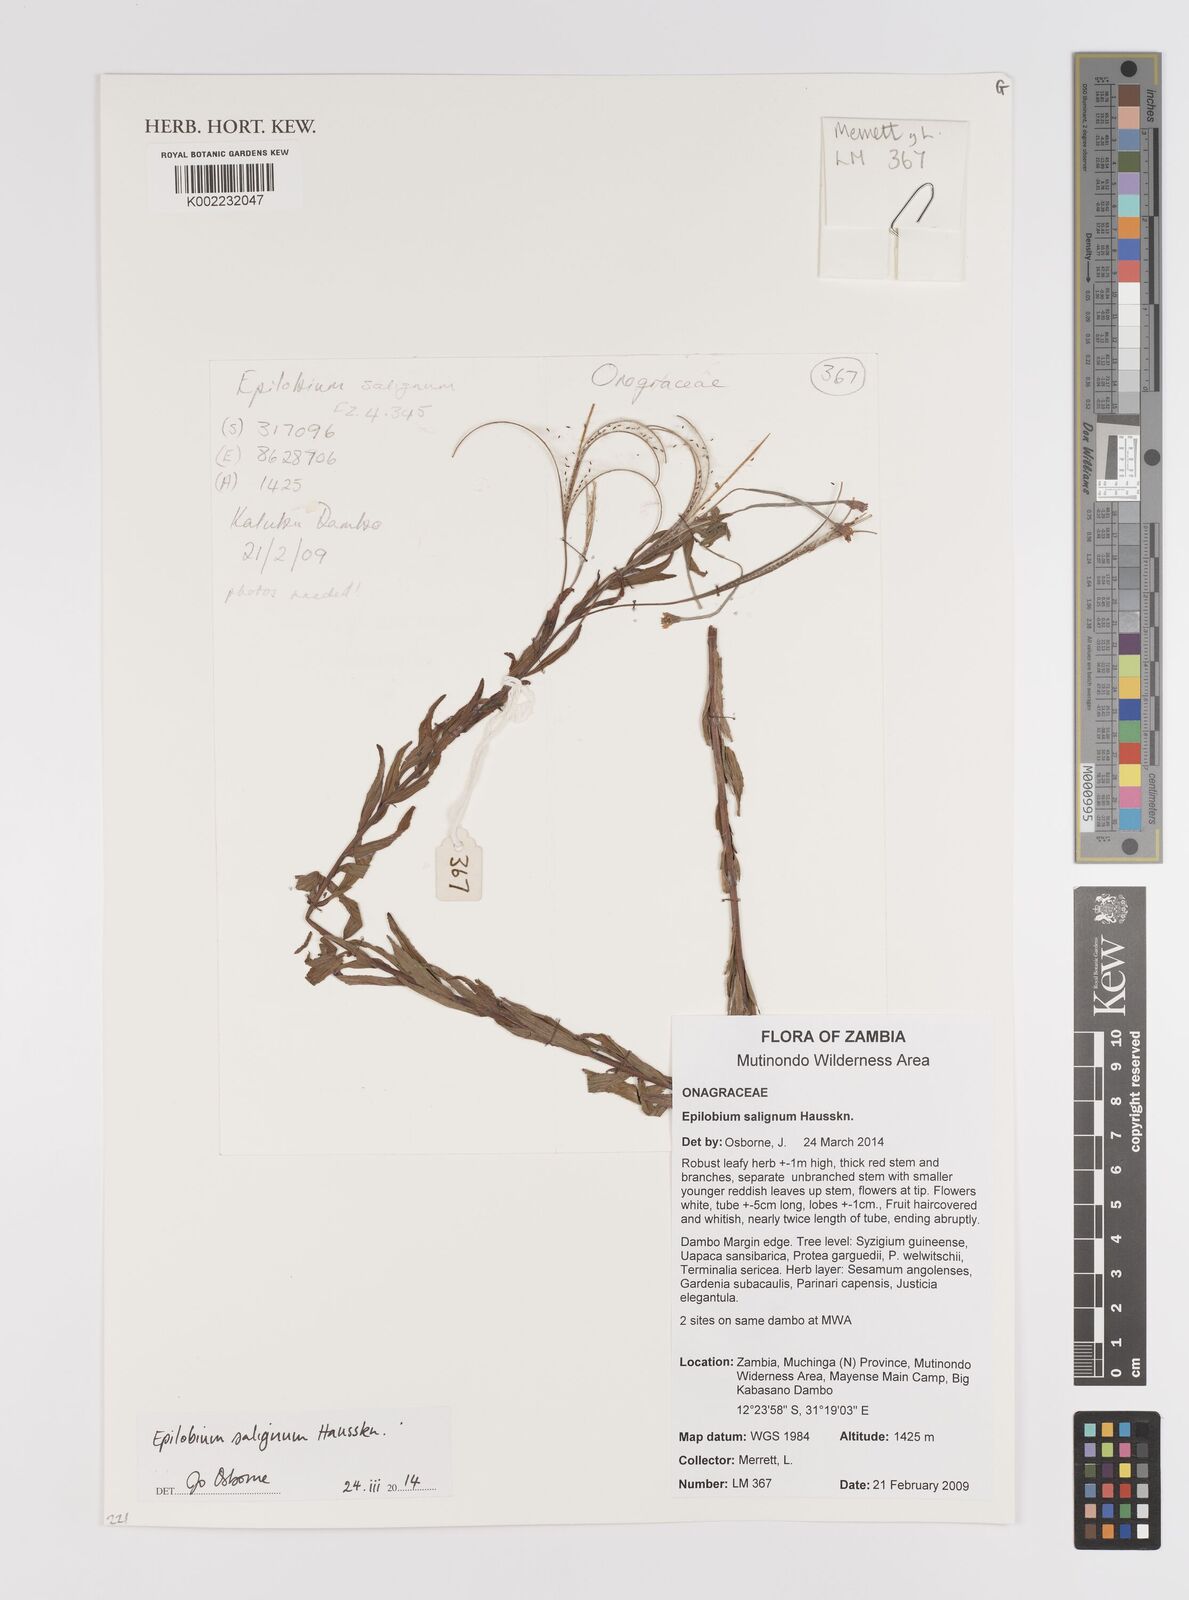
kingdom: Plantae
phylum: Tracheophyta
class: Magnoliopsida
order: Myrtales
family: Onagraceae
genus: Epilobium
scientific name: Epilobium salignum
